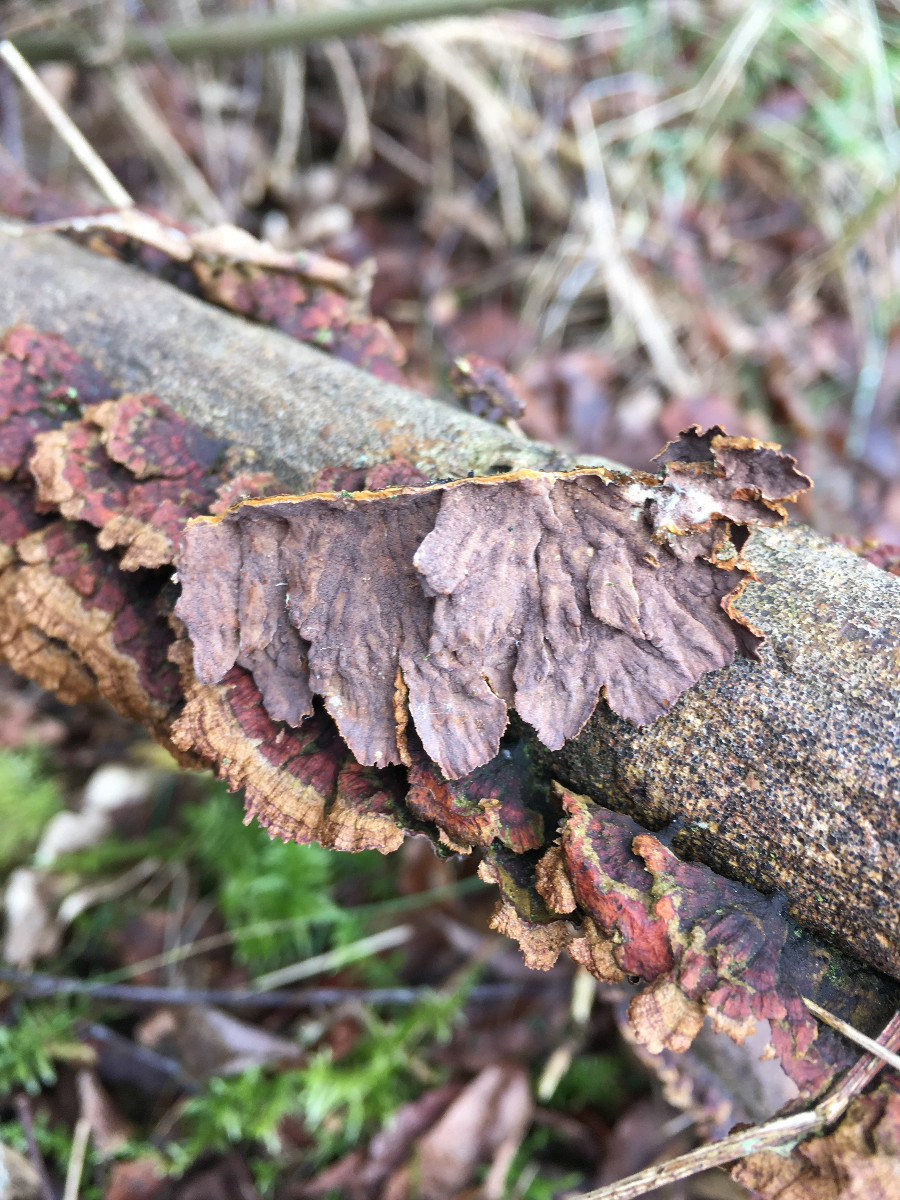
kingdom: Fungi
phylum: Basidiomycota
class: Agaricomycetes
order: Hymenochaetales
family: Hymenochaetaceae
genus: Hydnoporia
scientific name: Hydnoporia tabacina
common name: tobaksbrun ruslædersvamp
